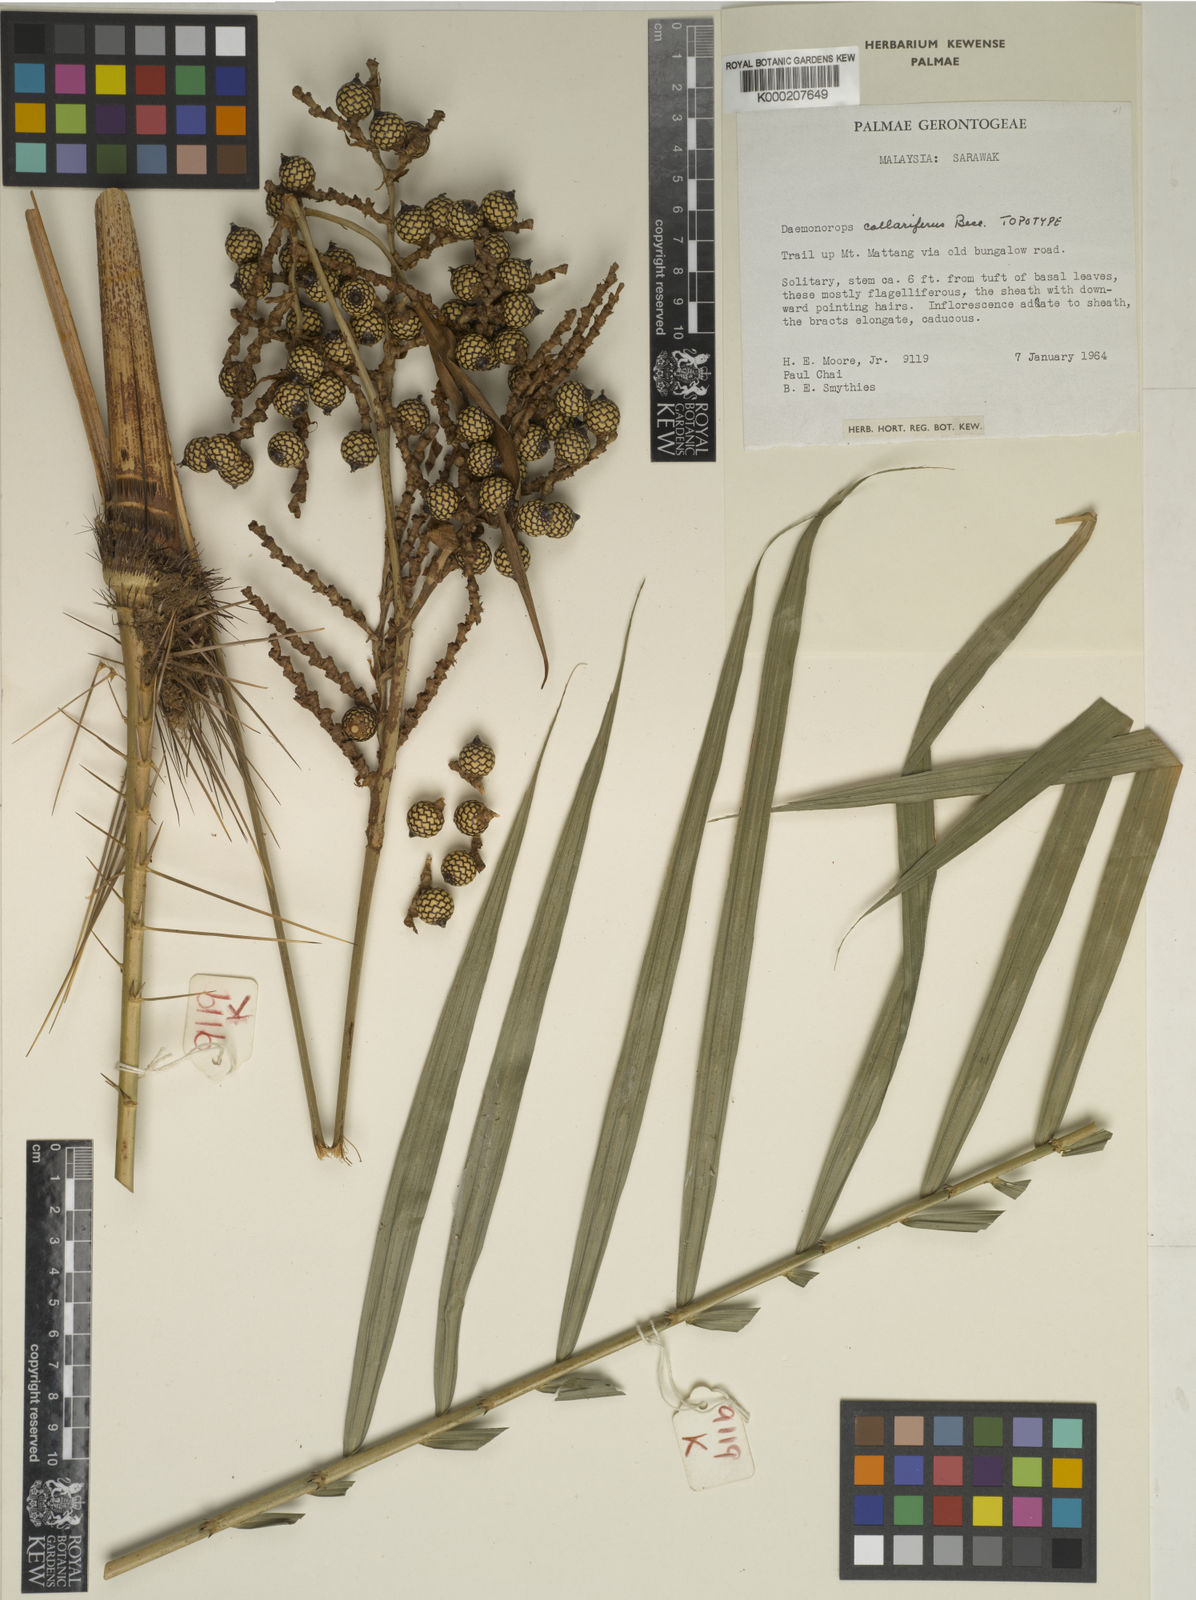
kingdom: Plantae
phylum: Tracheophyta
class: Liliopsida
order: Arecales
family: Arecaceae
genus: Calamus
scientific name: Calamus geniculatus
